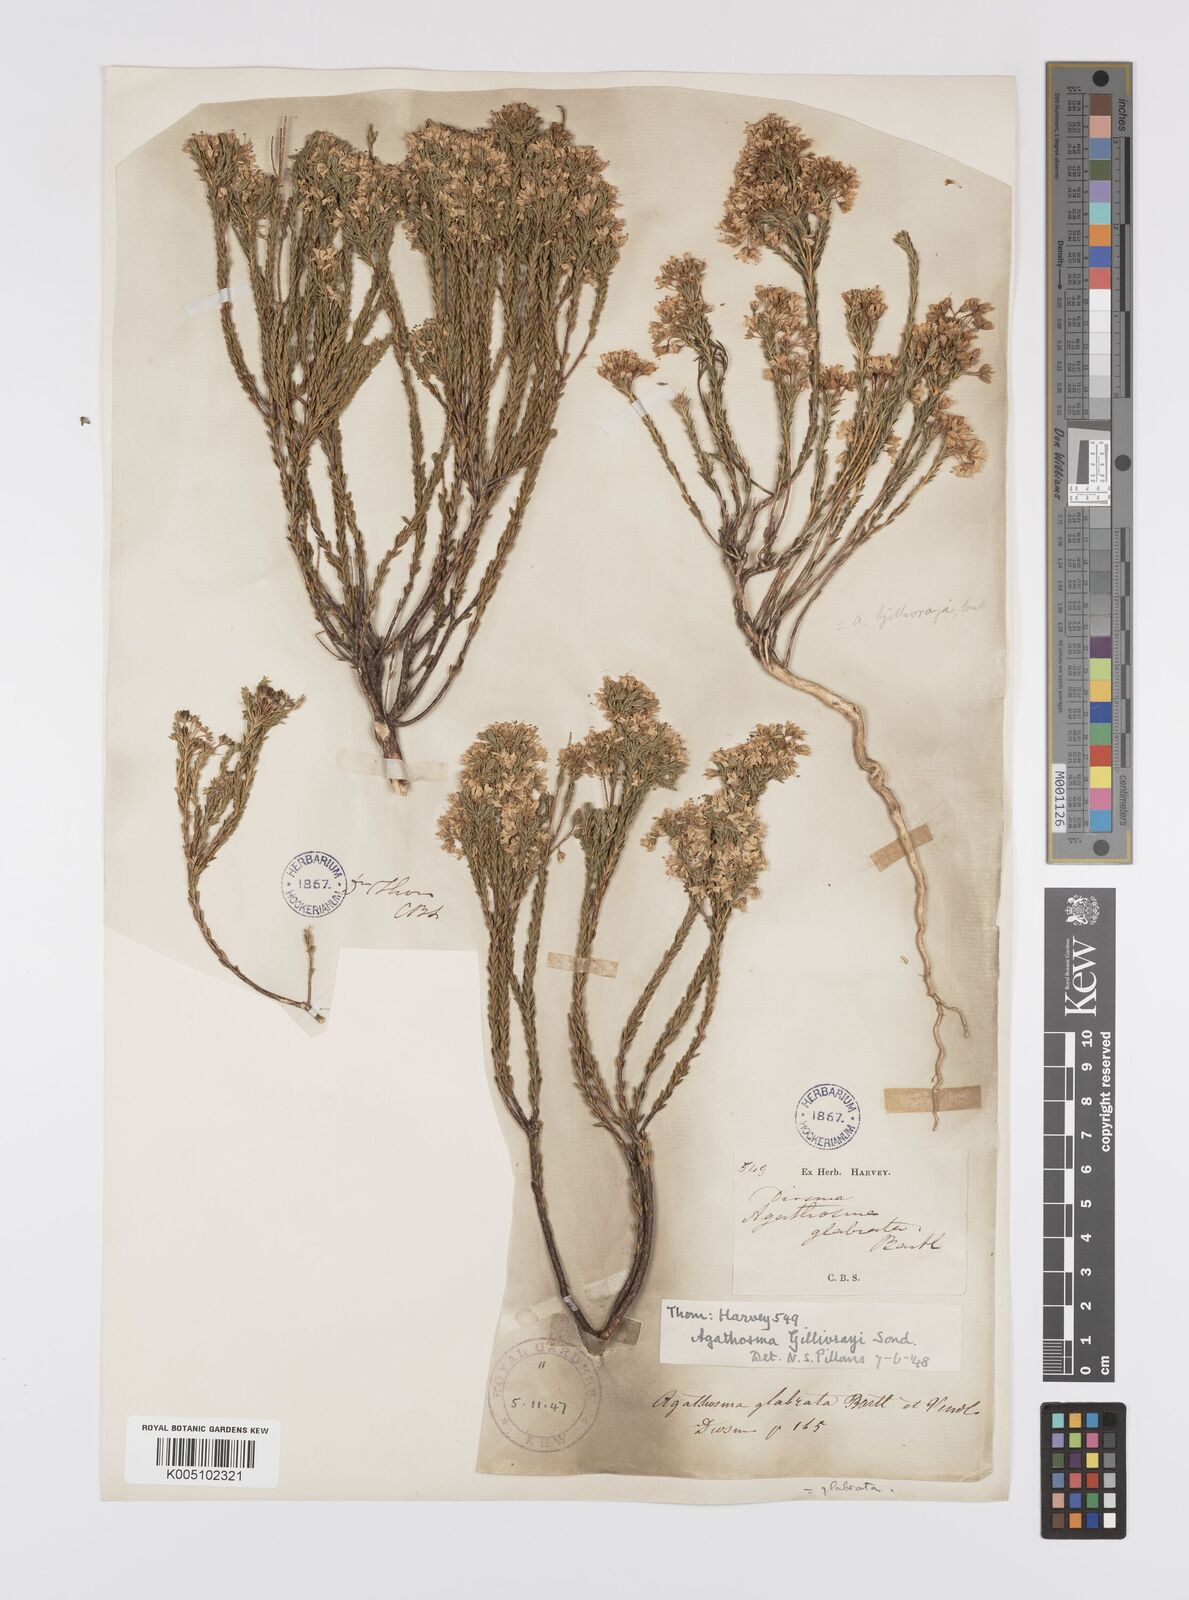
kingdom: Plantae
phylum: Tracheophyta
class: Magnoliopsida
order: Sapindales
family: Rutaceae
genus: Agathosma
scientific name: Agathosma
